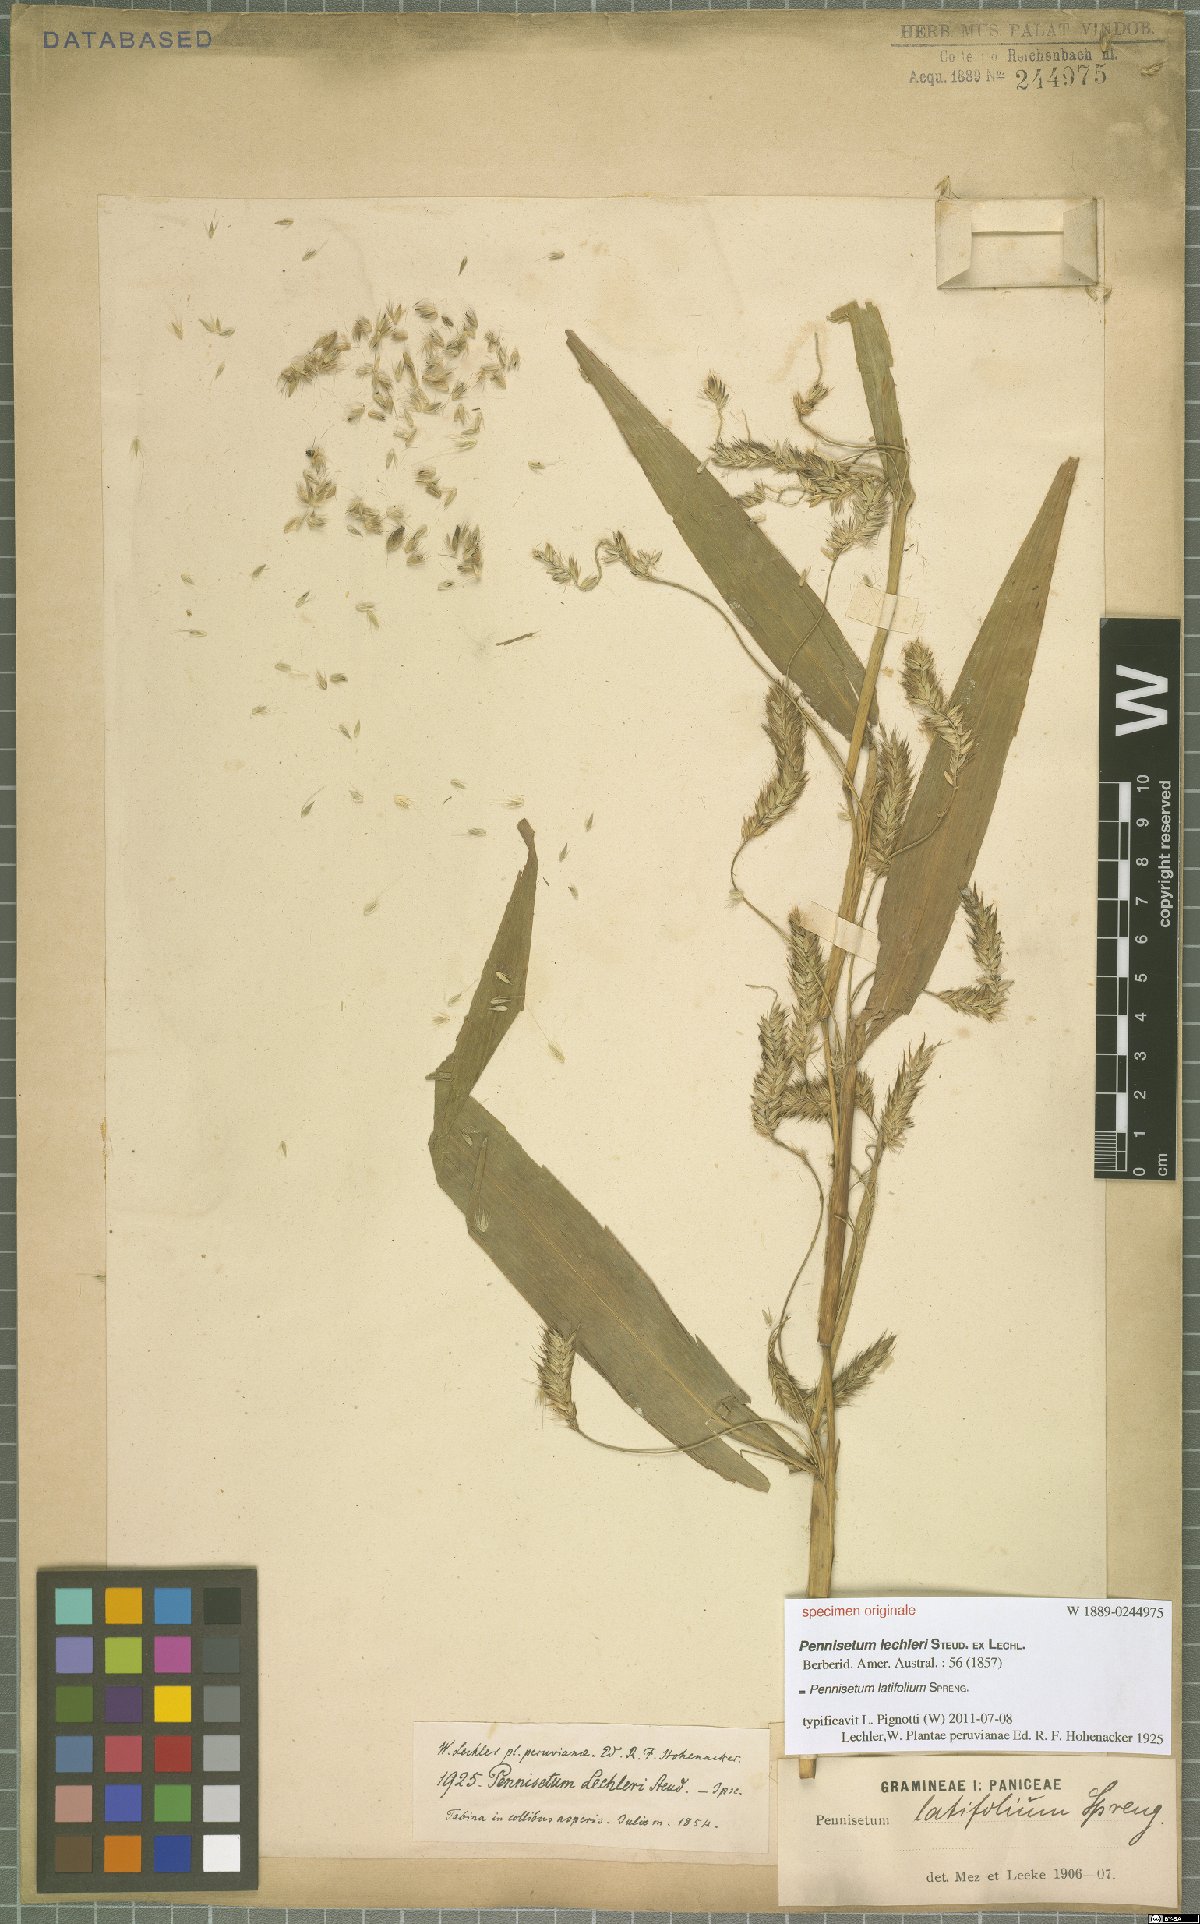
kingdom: Plantae
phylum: Tracheophyta
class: Liliopsida
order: Poales
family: Poaceae
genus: Cenchrus
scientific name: Cenchrus latifolius
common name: Sandbur
